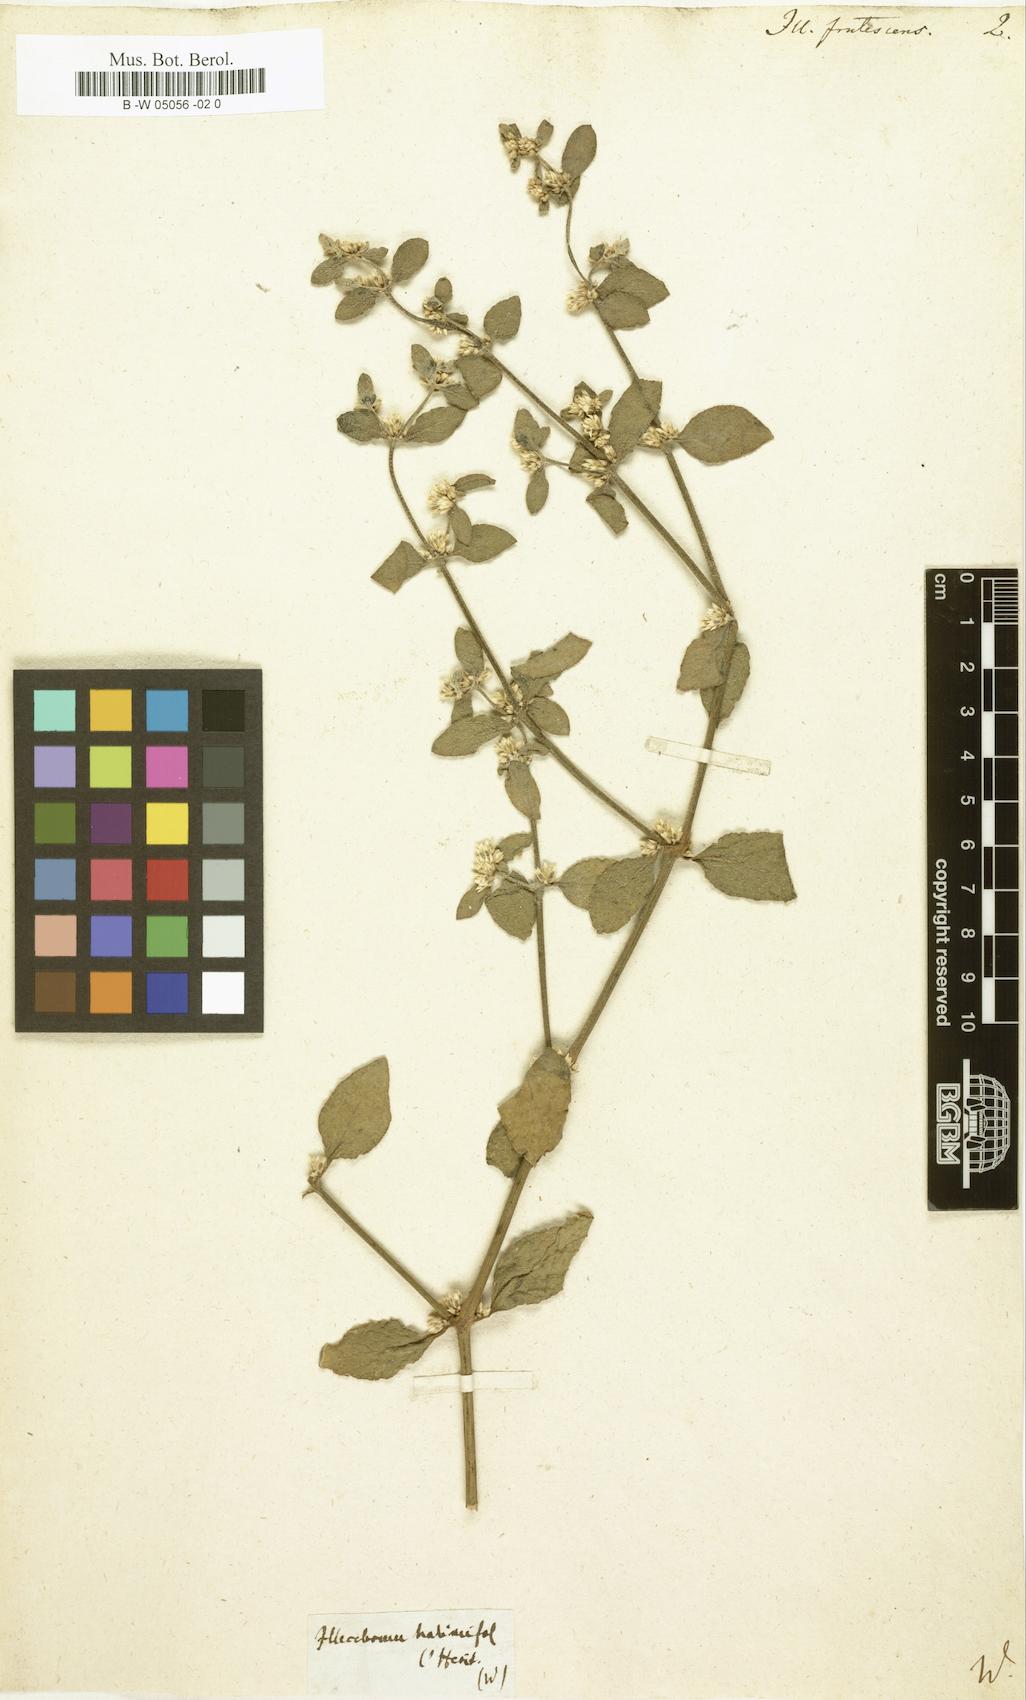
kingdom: Plantae
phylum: Tracheophyta
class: Magnoliopsida
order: Caryophyllales
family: Caryophyllaceae
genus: Polycarpon
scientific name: Polycarpon tetraphyllum
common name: Four-leaved all-seed
